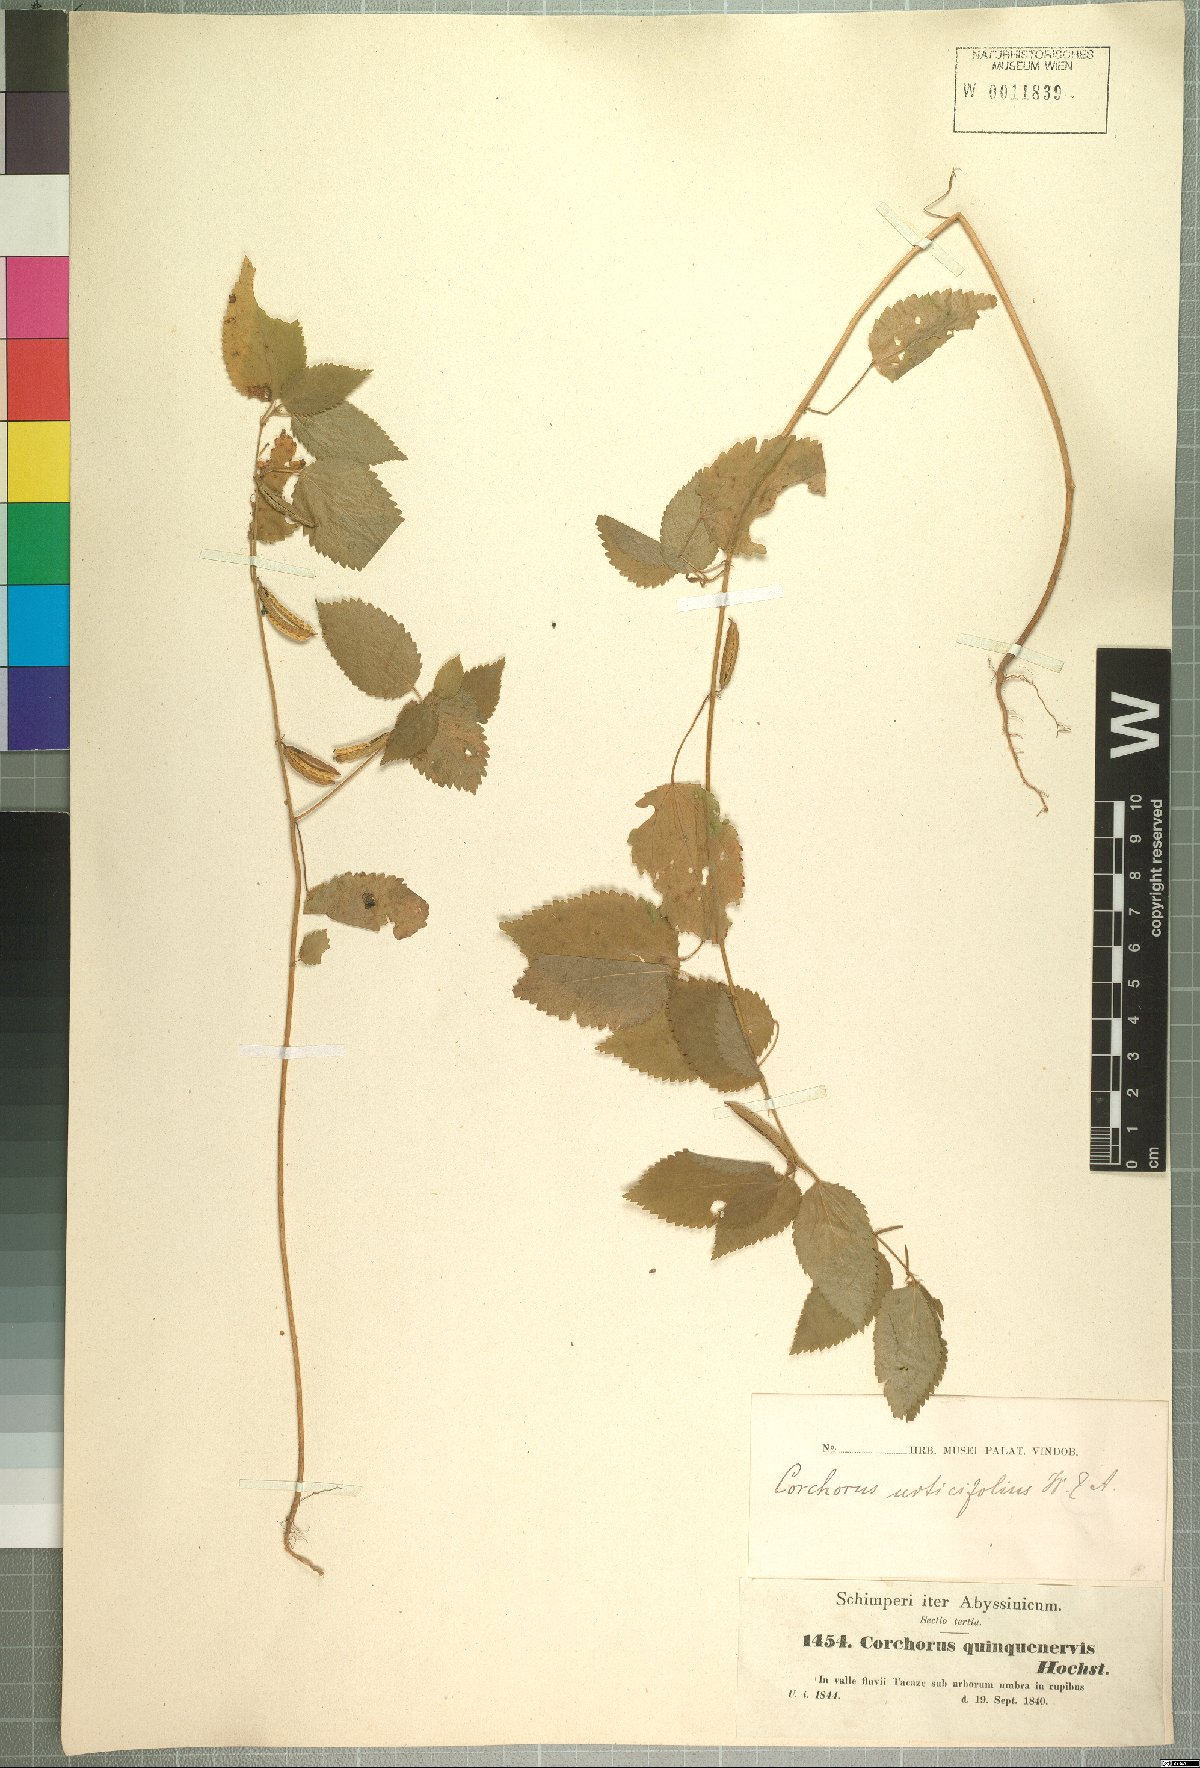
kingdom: Plantae
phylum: Tracheophyta
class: Magnoliopsida
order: Malvales
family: Malvaceae
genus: Corchorus
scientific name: Corchorus urticifolius
